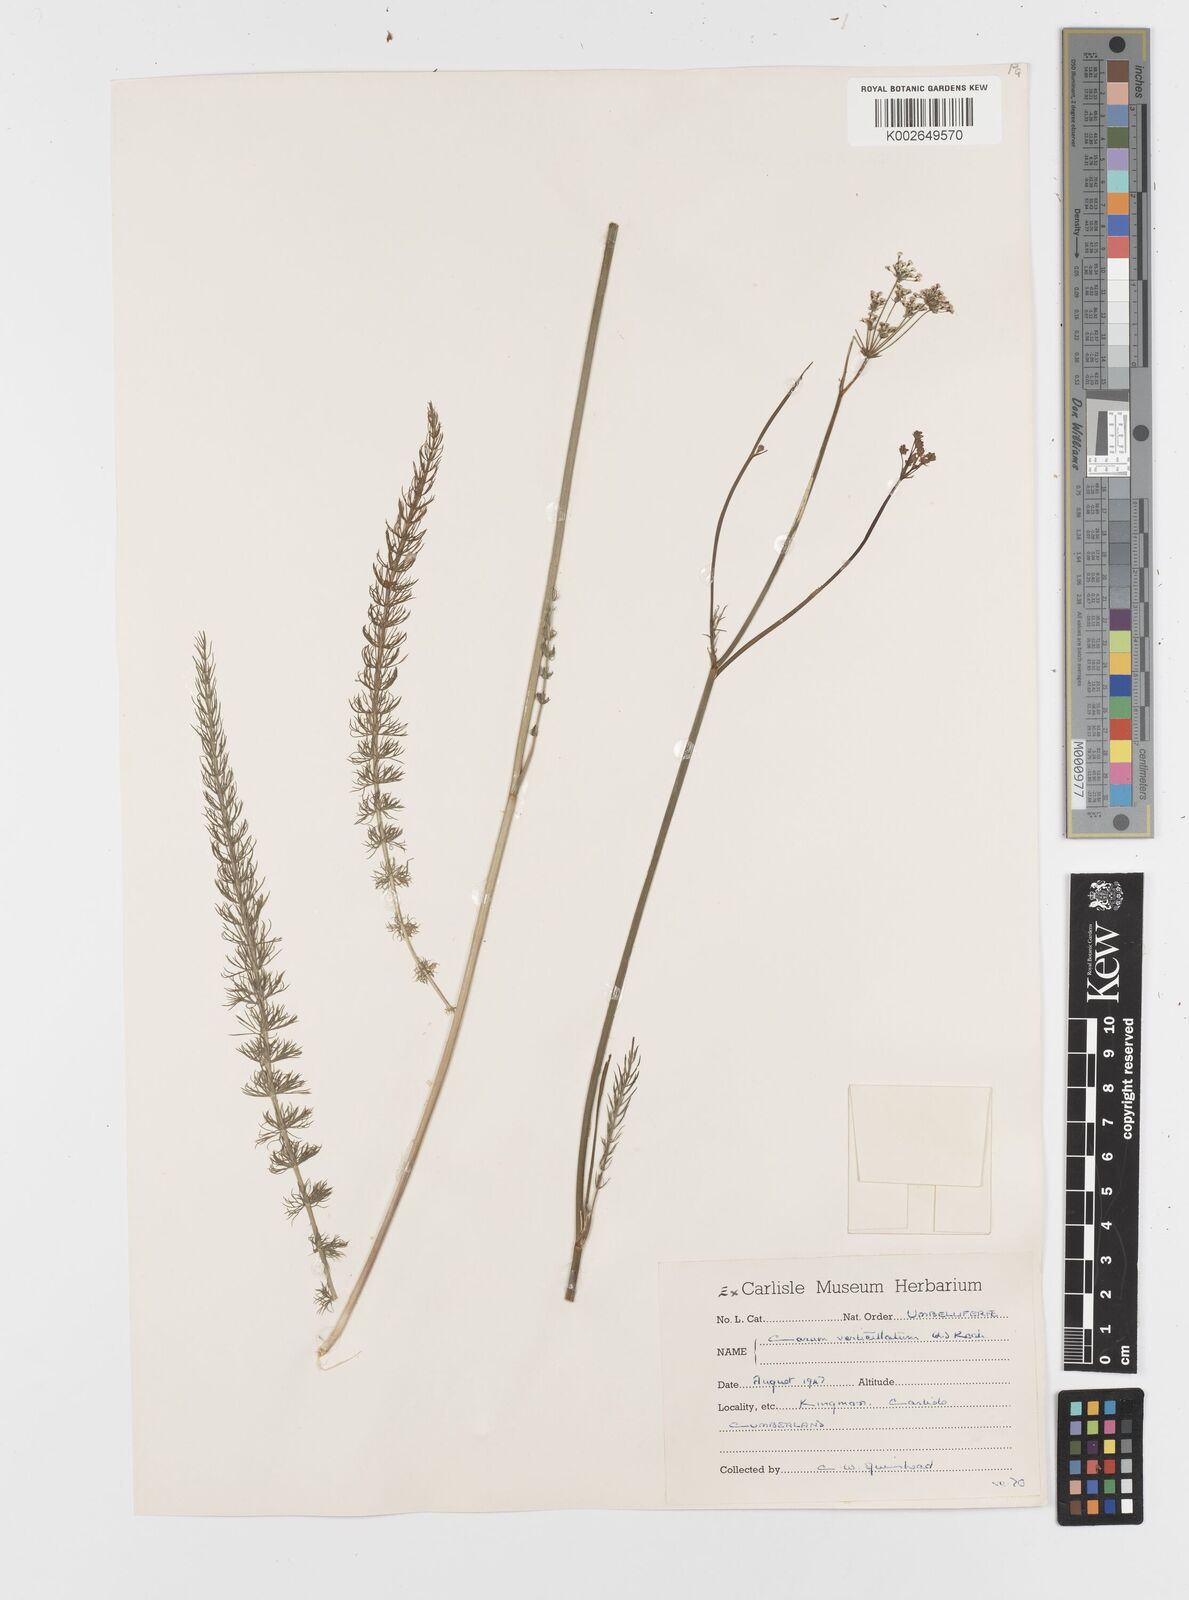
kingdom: Plantae
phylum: Tracheophyta
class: Magnoliopsida
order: Apiales
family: Apiaceae
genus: Trocdaris
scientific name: Trocdaris verticillatum
